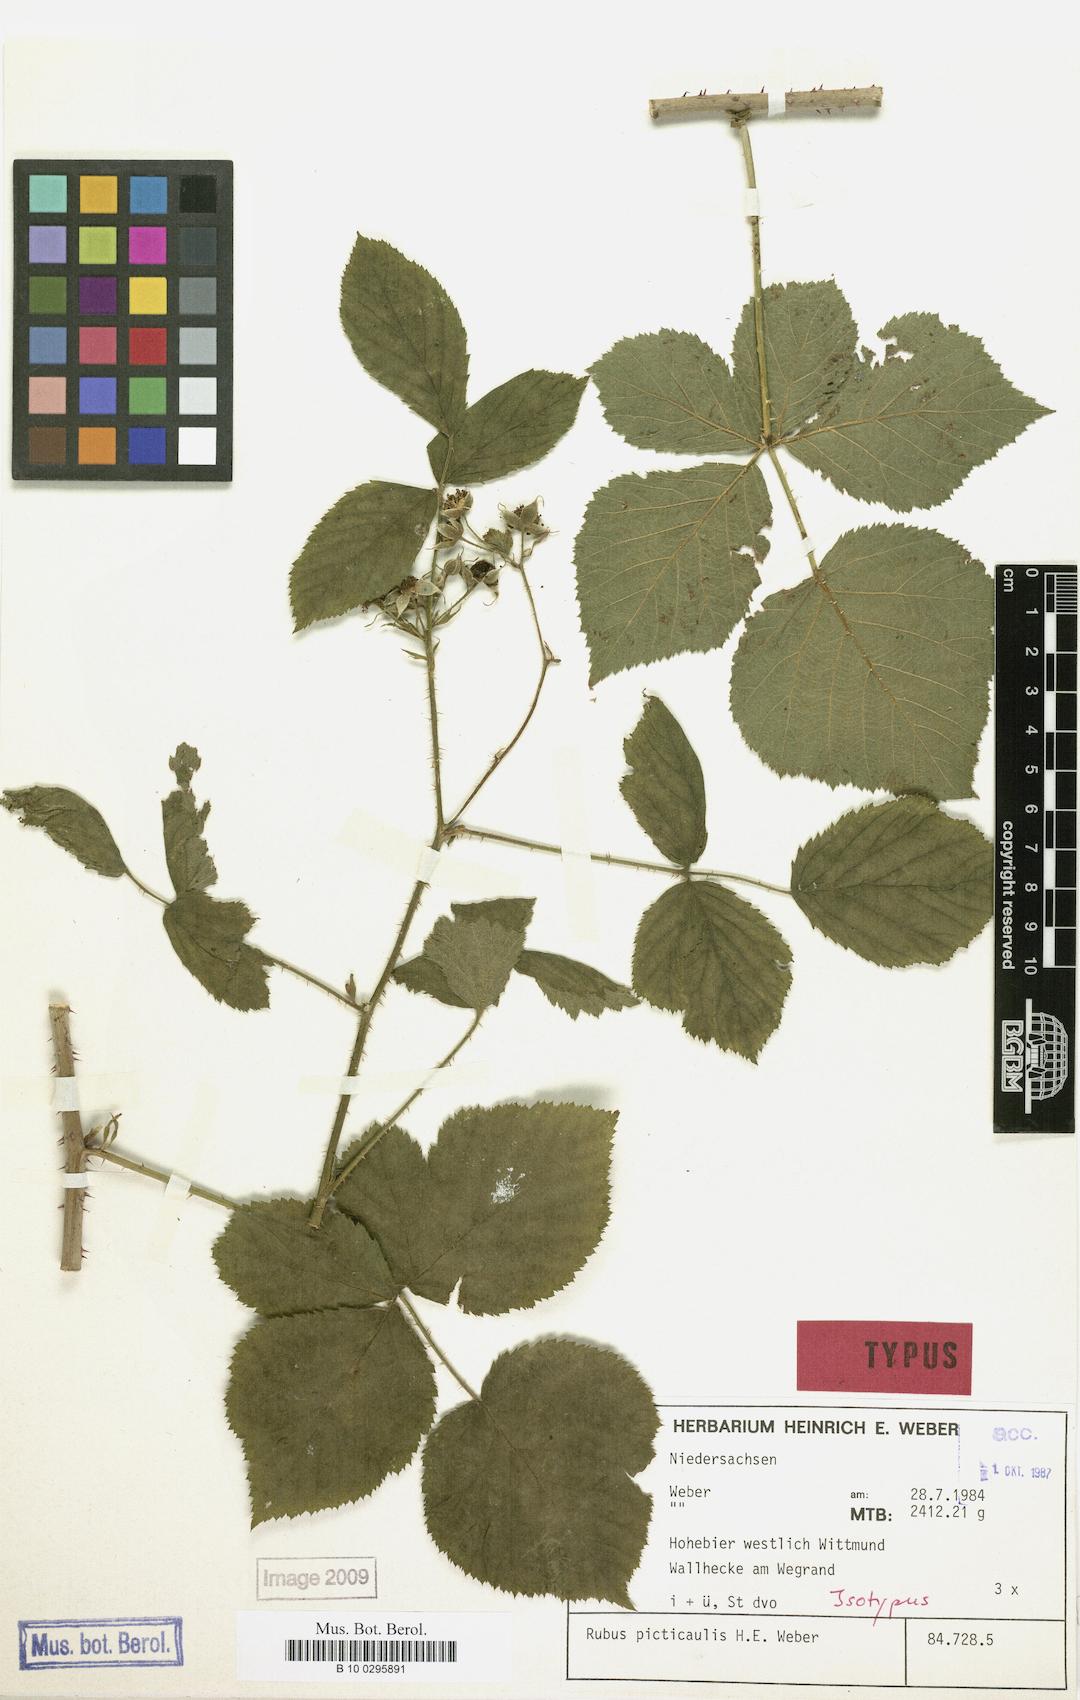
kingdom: Plantae
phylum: Tracheophyta
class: Magnoliopsida
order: Rosales
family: Rosaceae
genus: Rubus
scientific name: Rubus picticaulis
